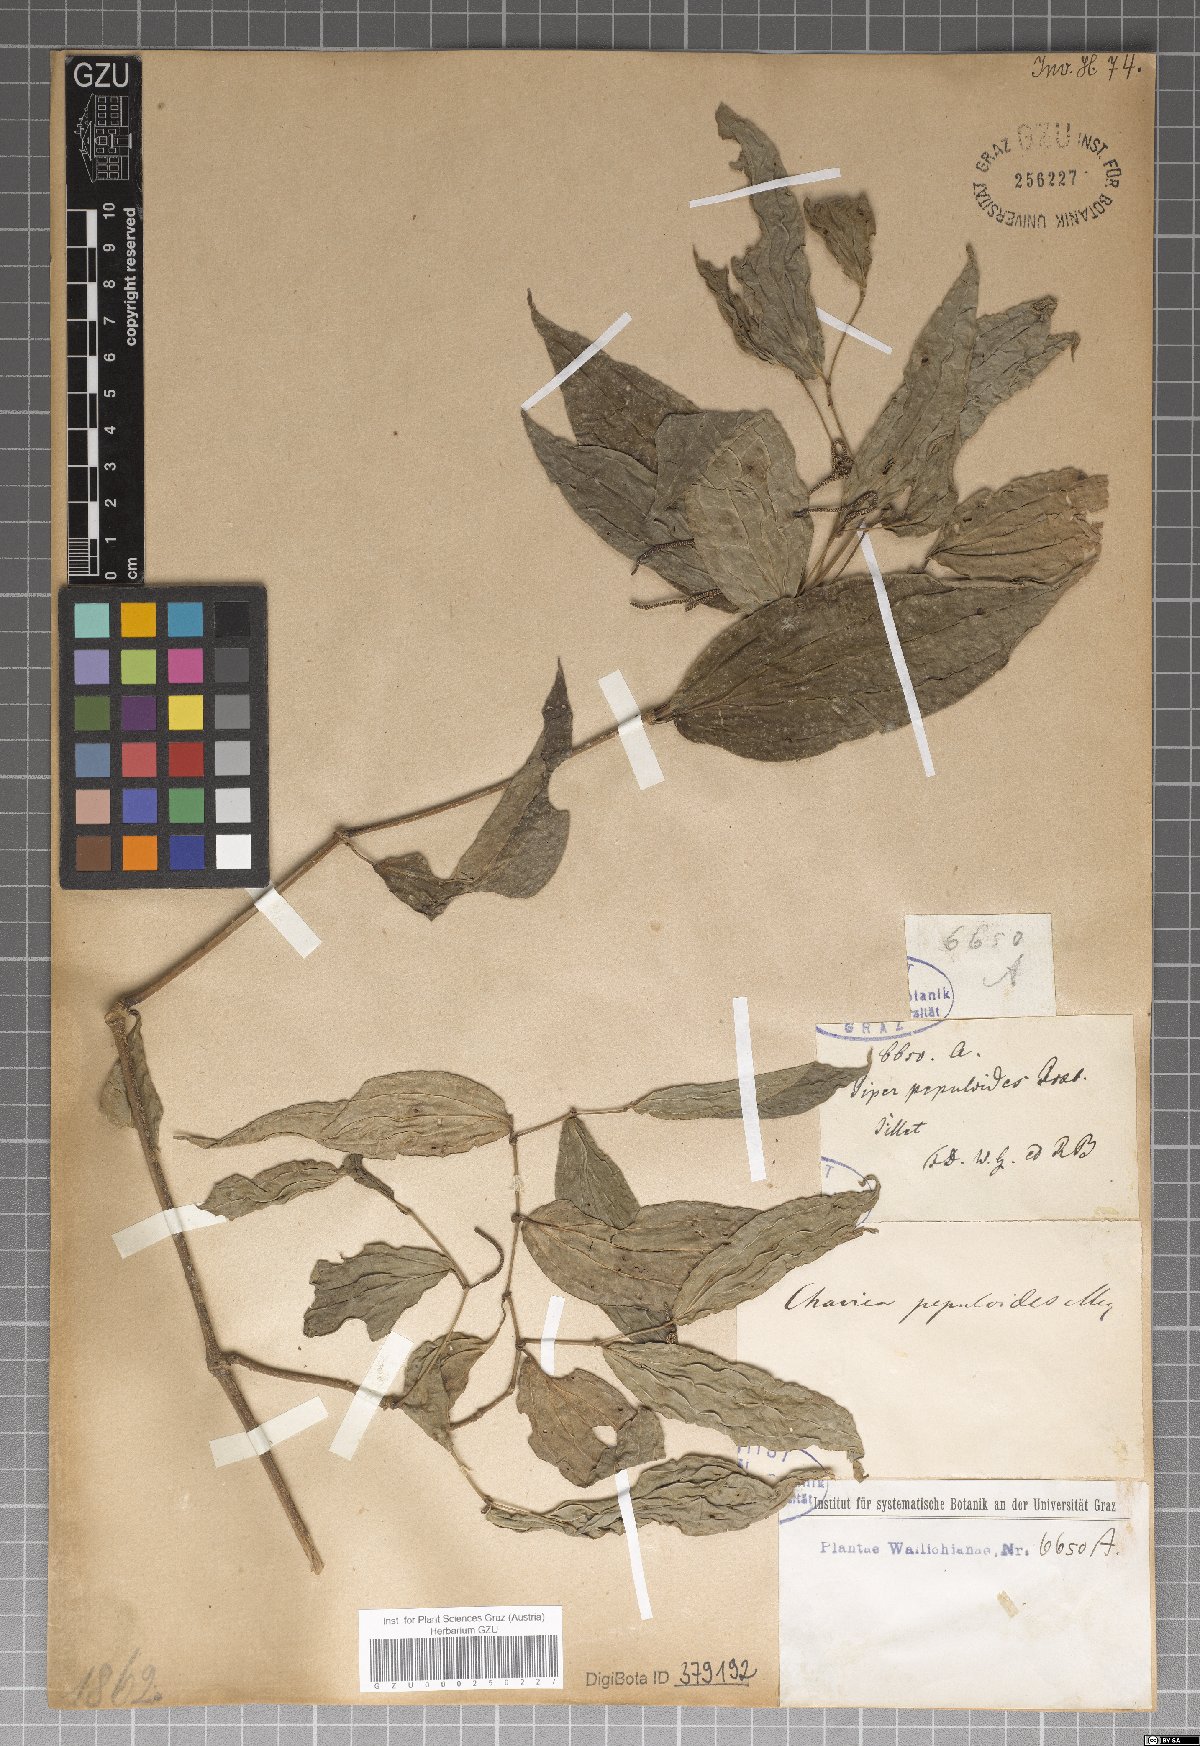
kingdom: Plantae
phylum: Tracheophyta
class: Magnoliopsida
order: Piperales
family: Piperaceae
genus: Piper
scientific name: Piper peepuloides
